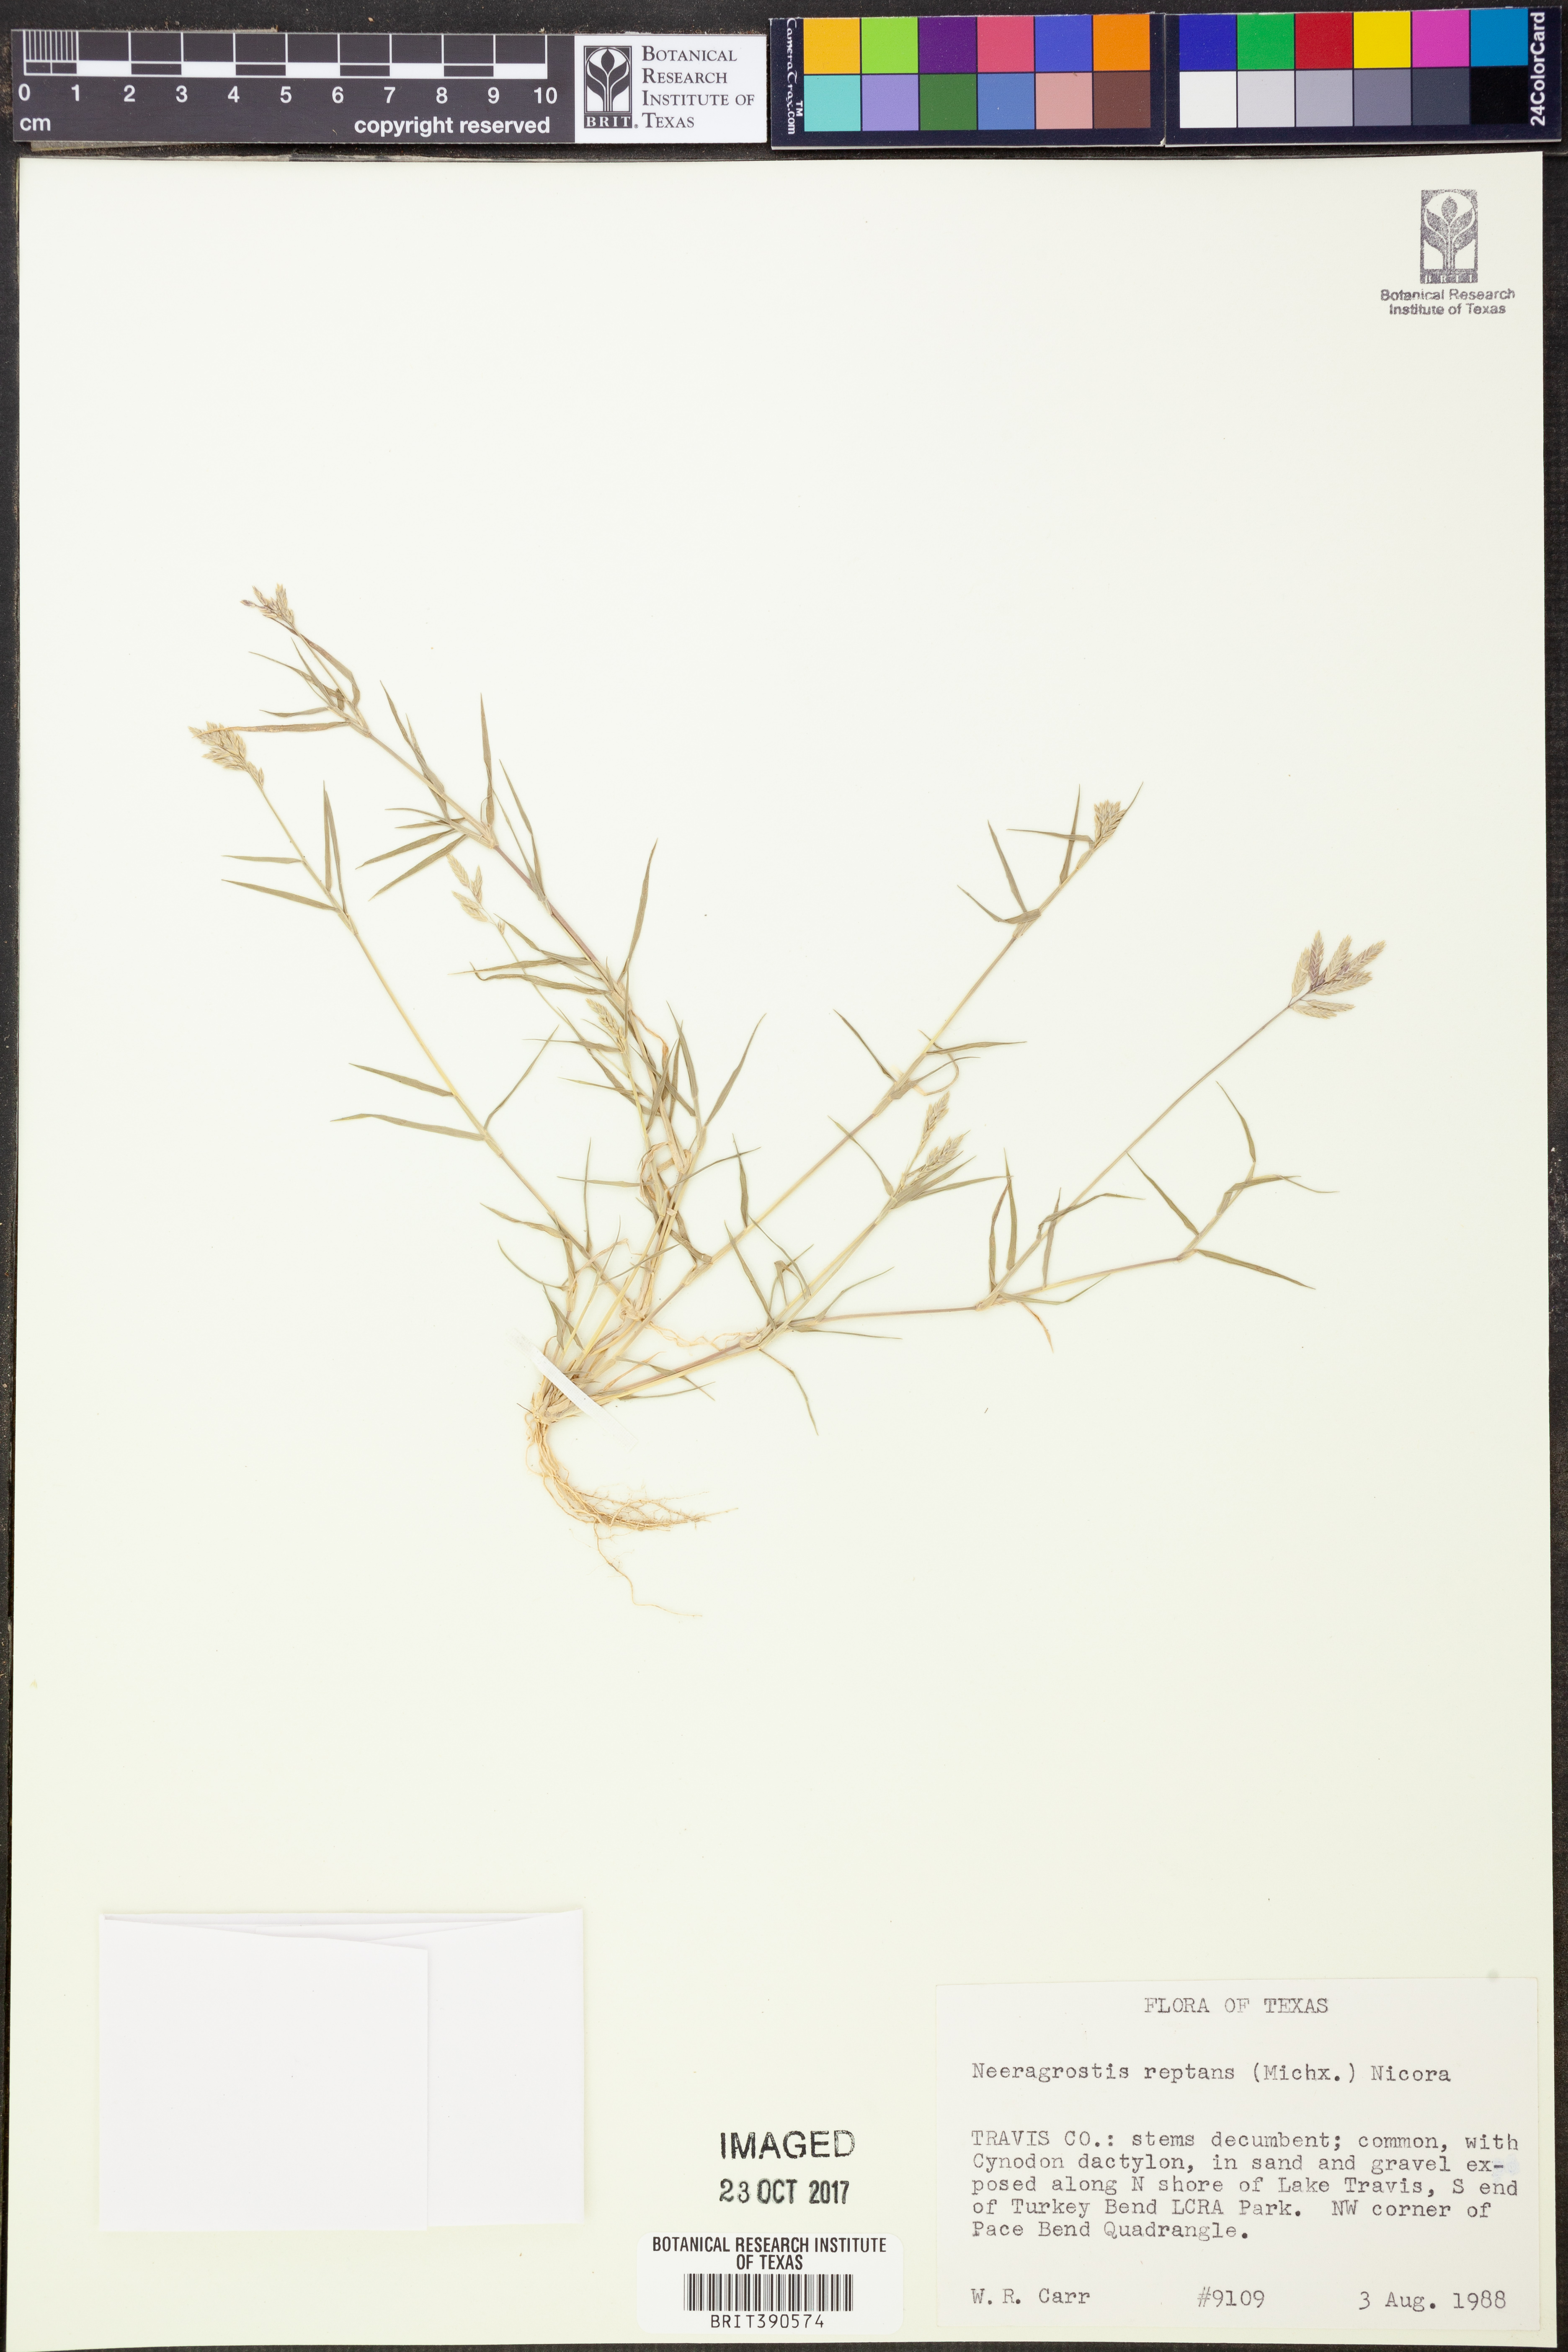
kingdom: Plantae
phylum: Tracheophyta
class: Liliopsida
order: Poales
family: Poaceae
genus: Eragrostis
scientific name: Eragrostis reptans
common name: Creeping love grass
